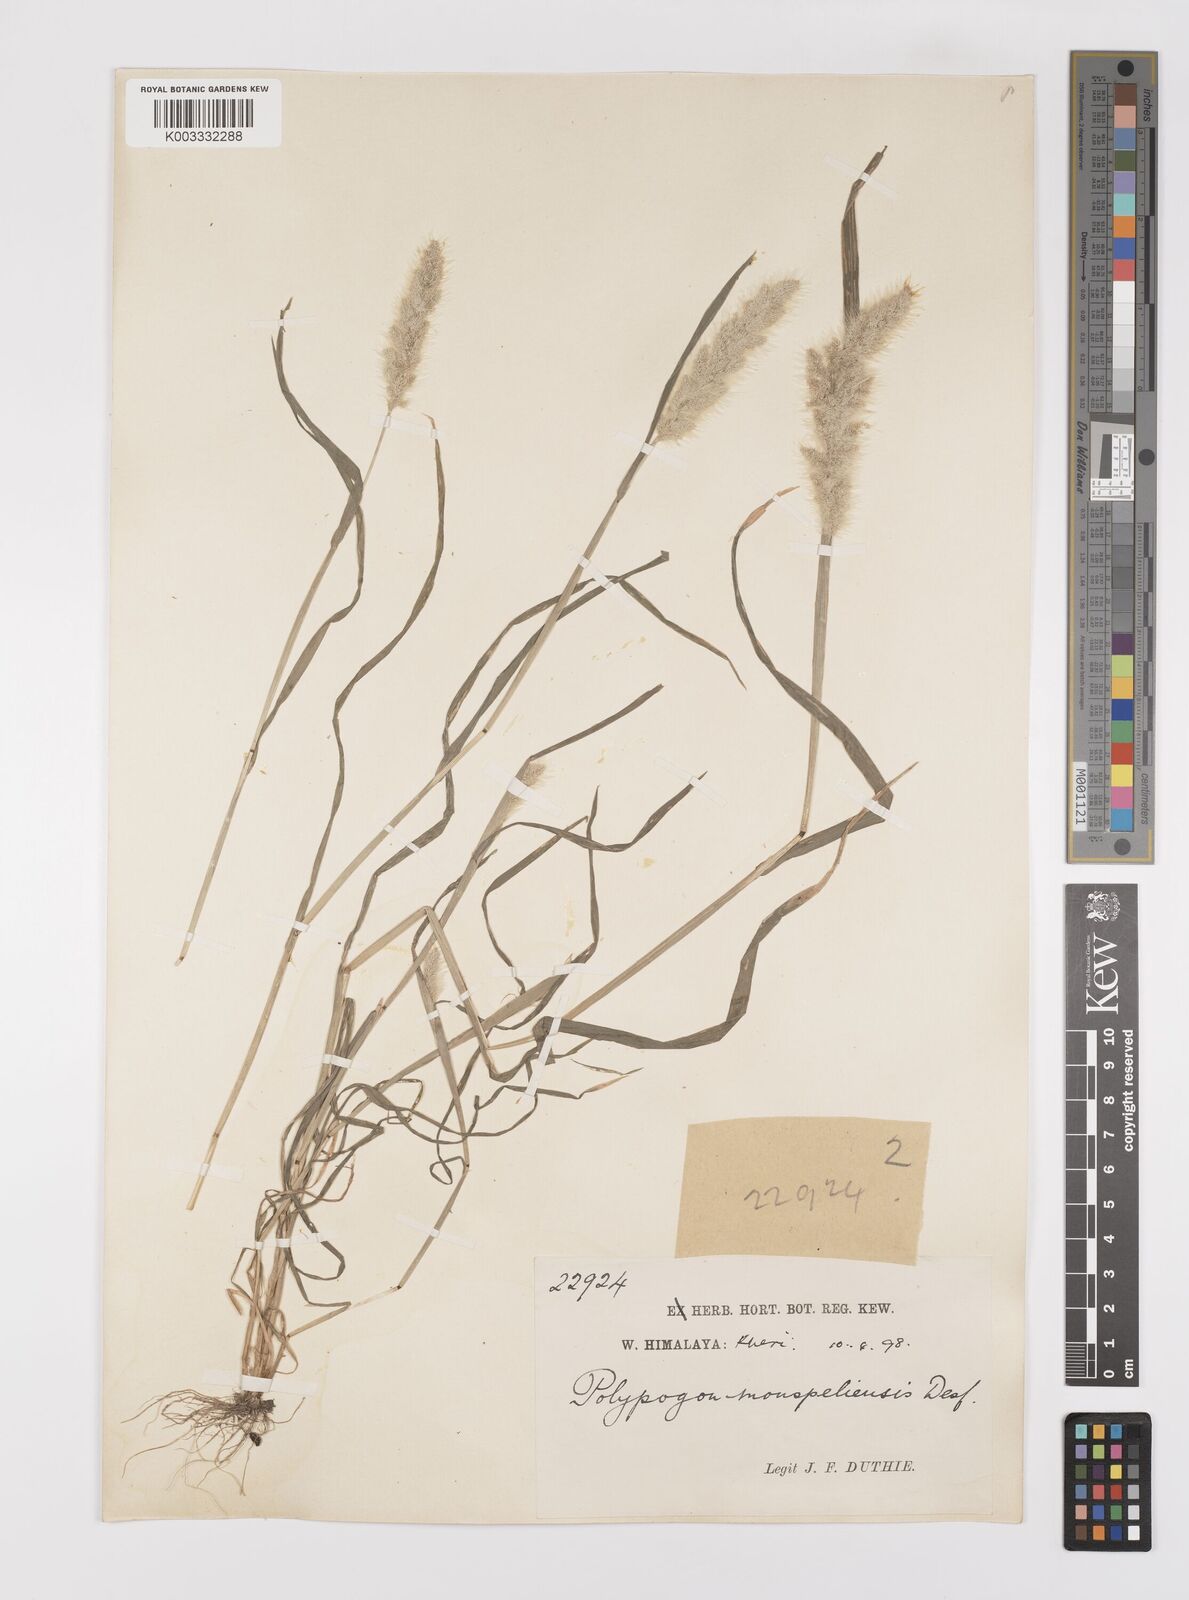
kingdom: Plantae
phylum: Tracheophyta
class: Liliopsida
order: Poales
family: Poaceae
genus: Polypogon
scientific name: Polypogon monspeliensis
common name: Annual rabbitsfoot grass
